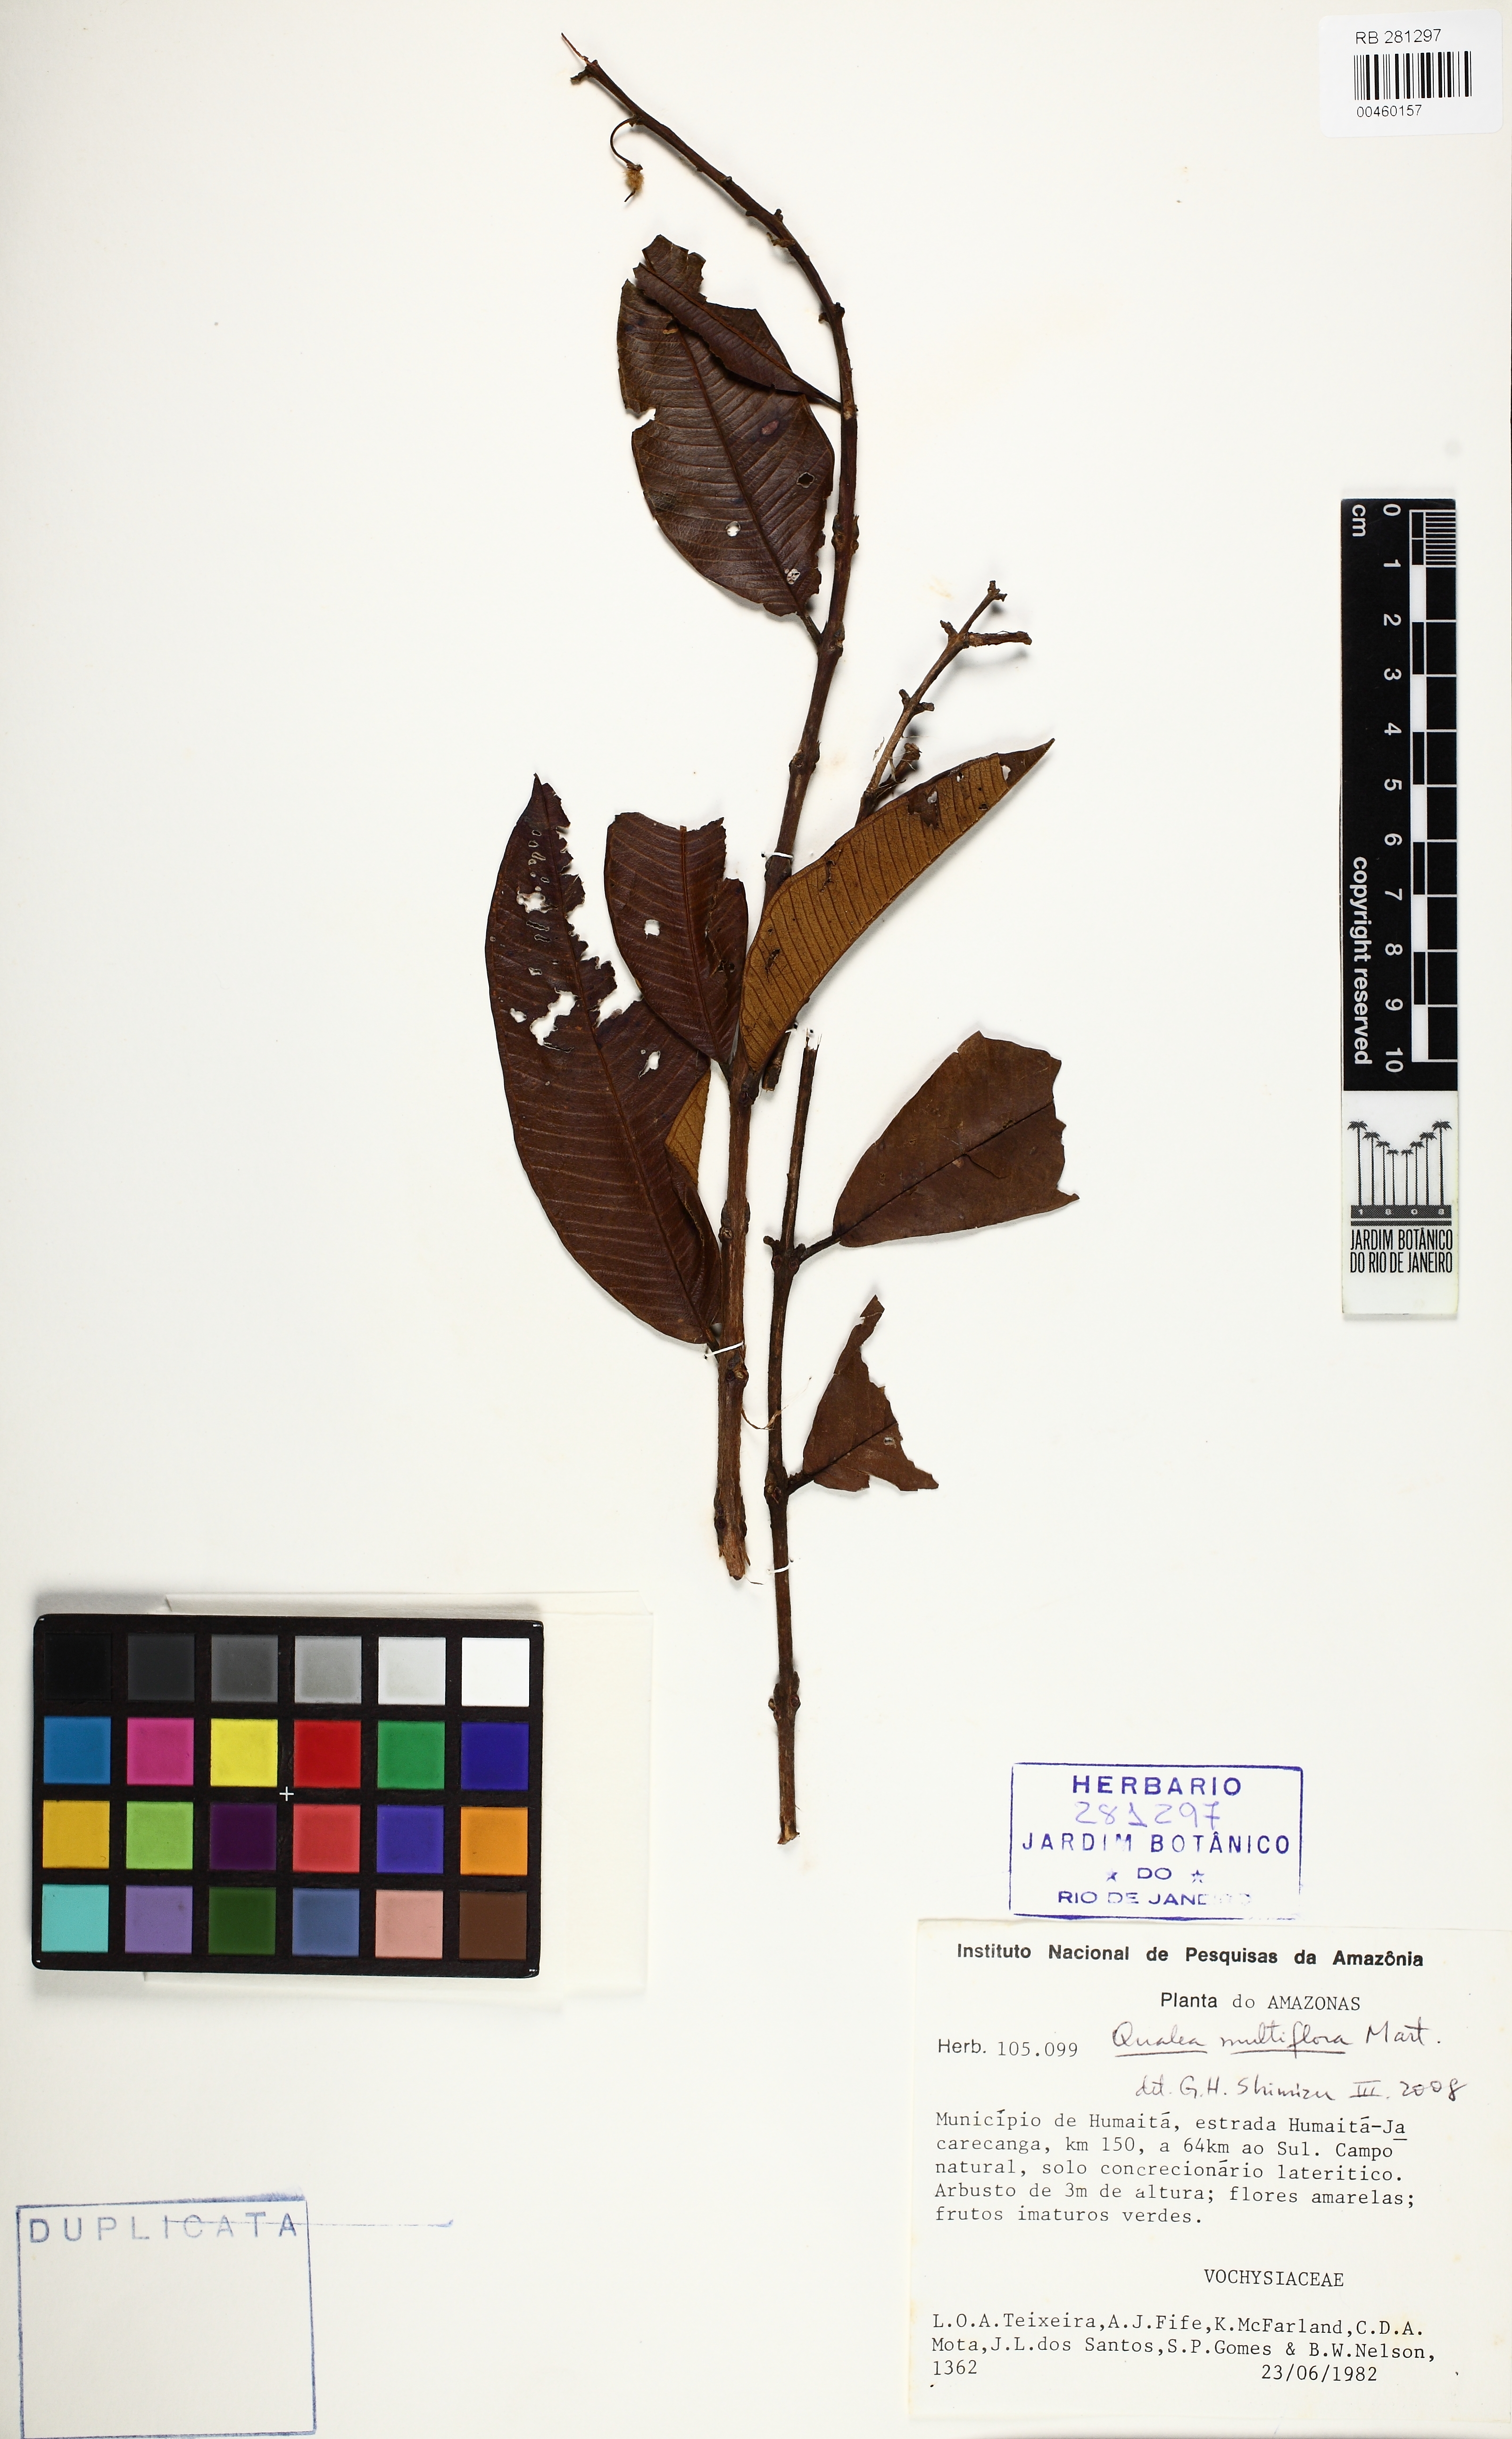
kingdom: Plantae
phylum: Tracheophyta
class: Magnoliopsida
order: Myrtales
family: Vochysiaceae
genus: Qualea
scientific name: Qualea multiflora
